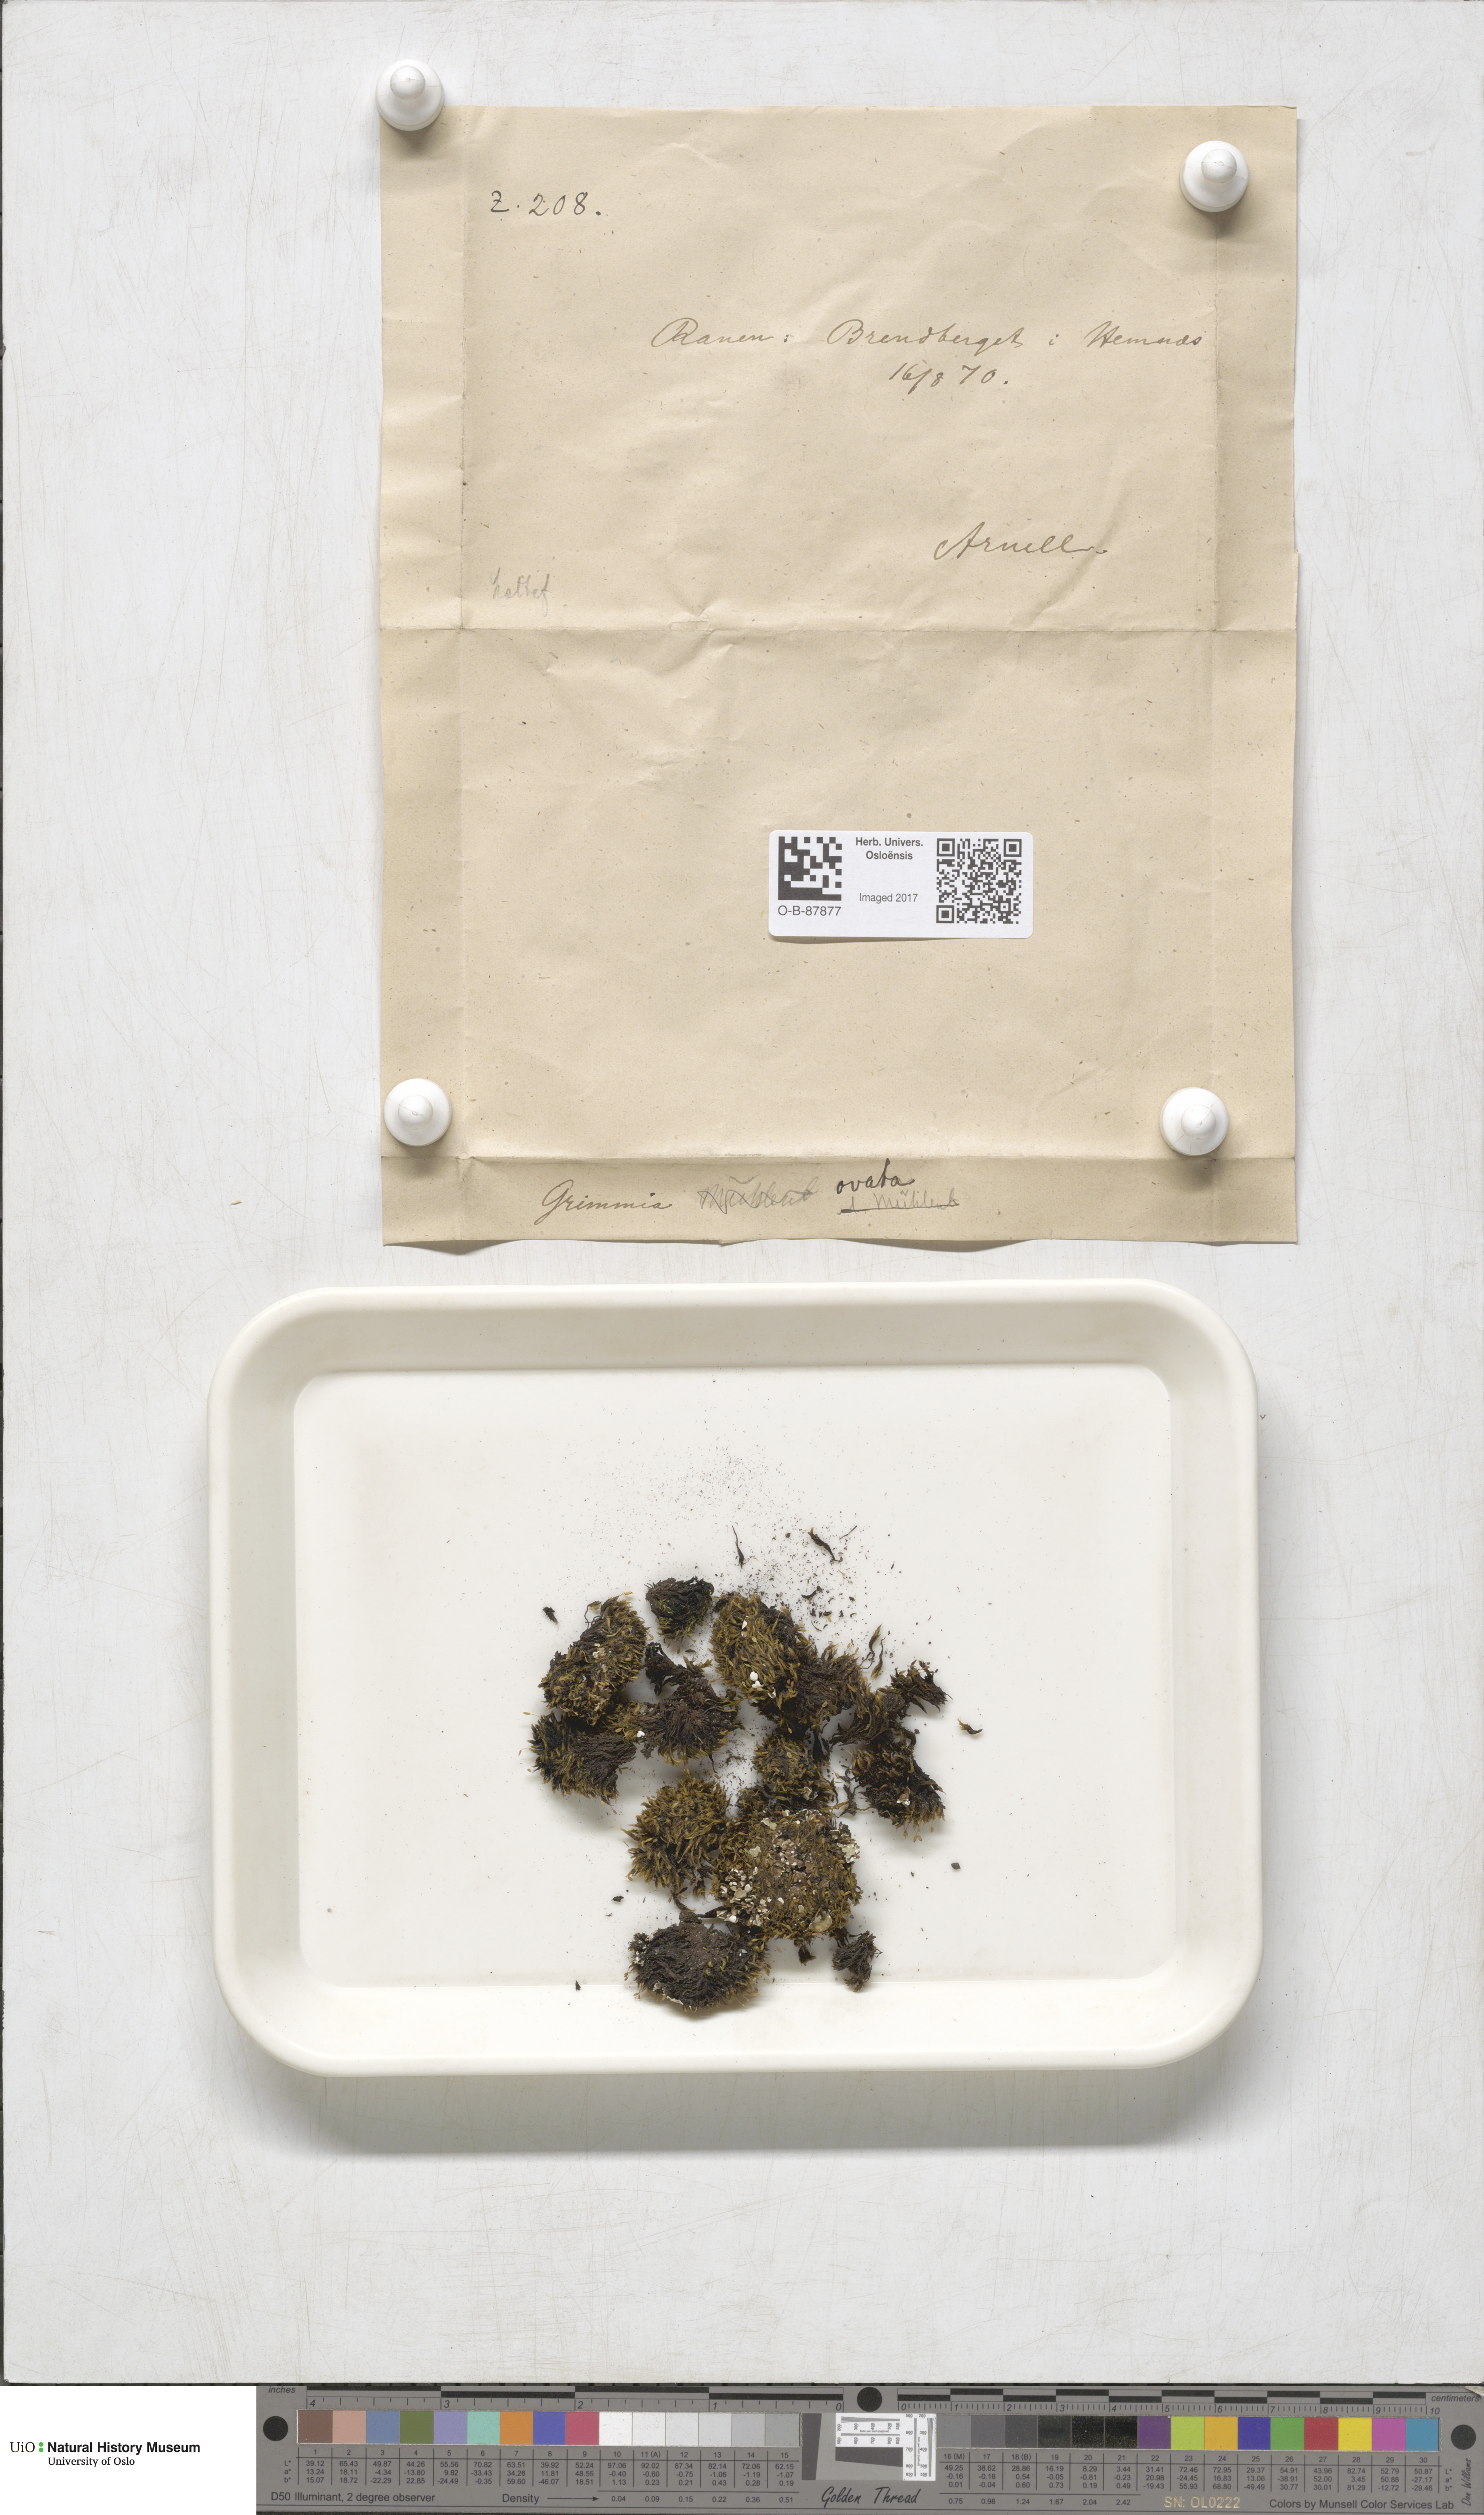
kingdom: Plantae
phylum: Bryophyta
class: Bryopsida
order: Grimmiales
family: Grimmiaceae
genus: Grimmia
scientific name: Grimmia ovalis
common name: Oval grimmia
